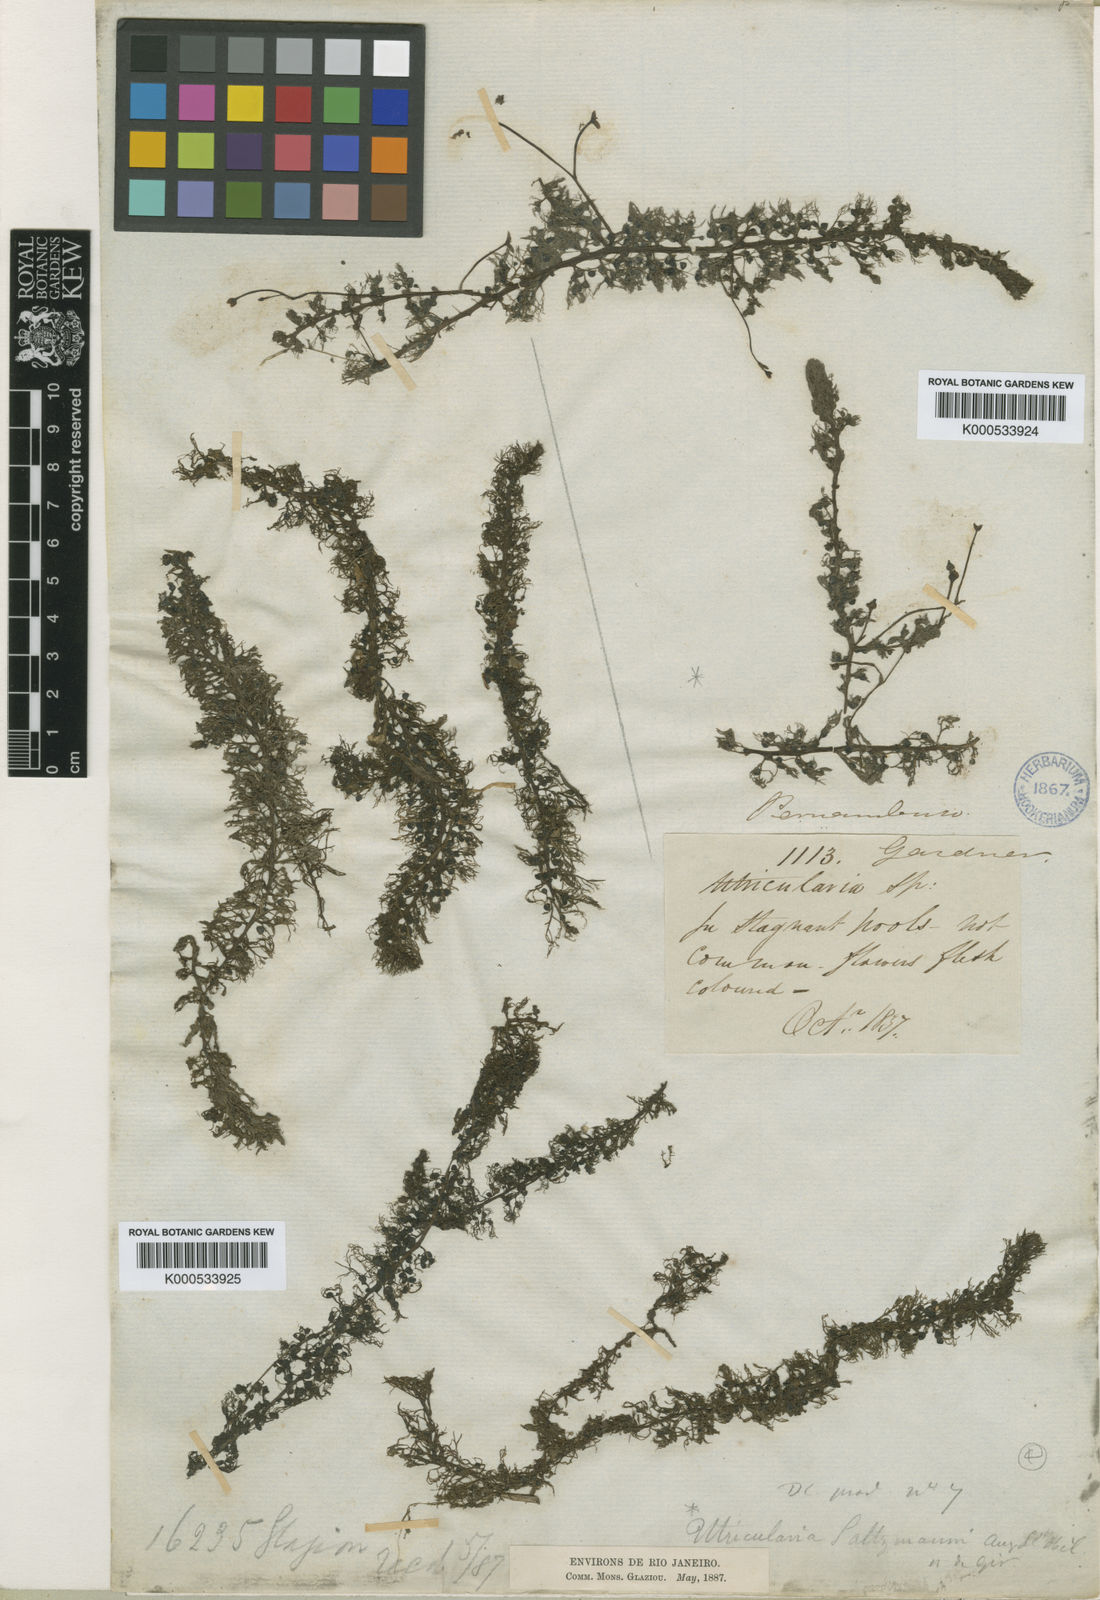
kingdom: Plantae
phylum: Tracheophyta
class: Magnoliopsida
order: Lamiales
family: Lentibulariaceae
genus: Utricularia
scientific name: Utricularia hydrocarpa
